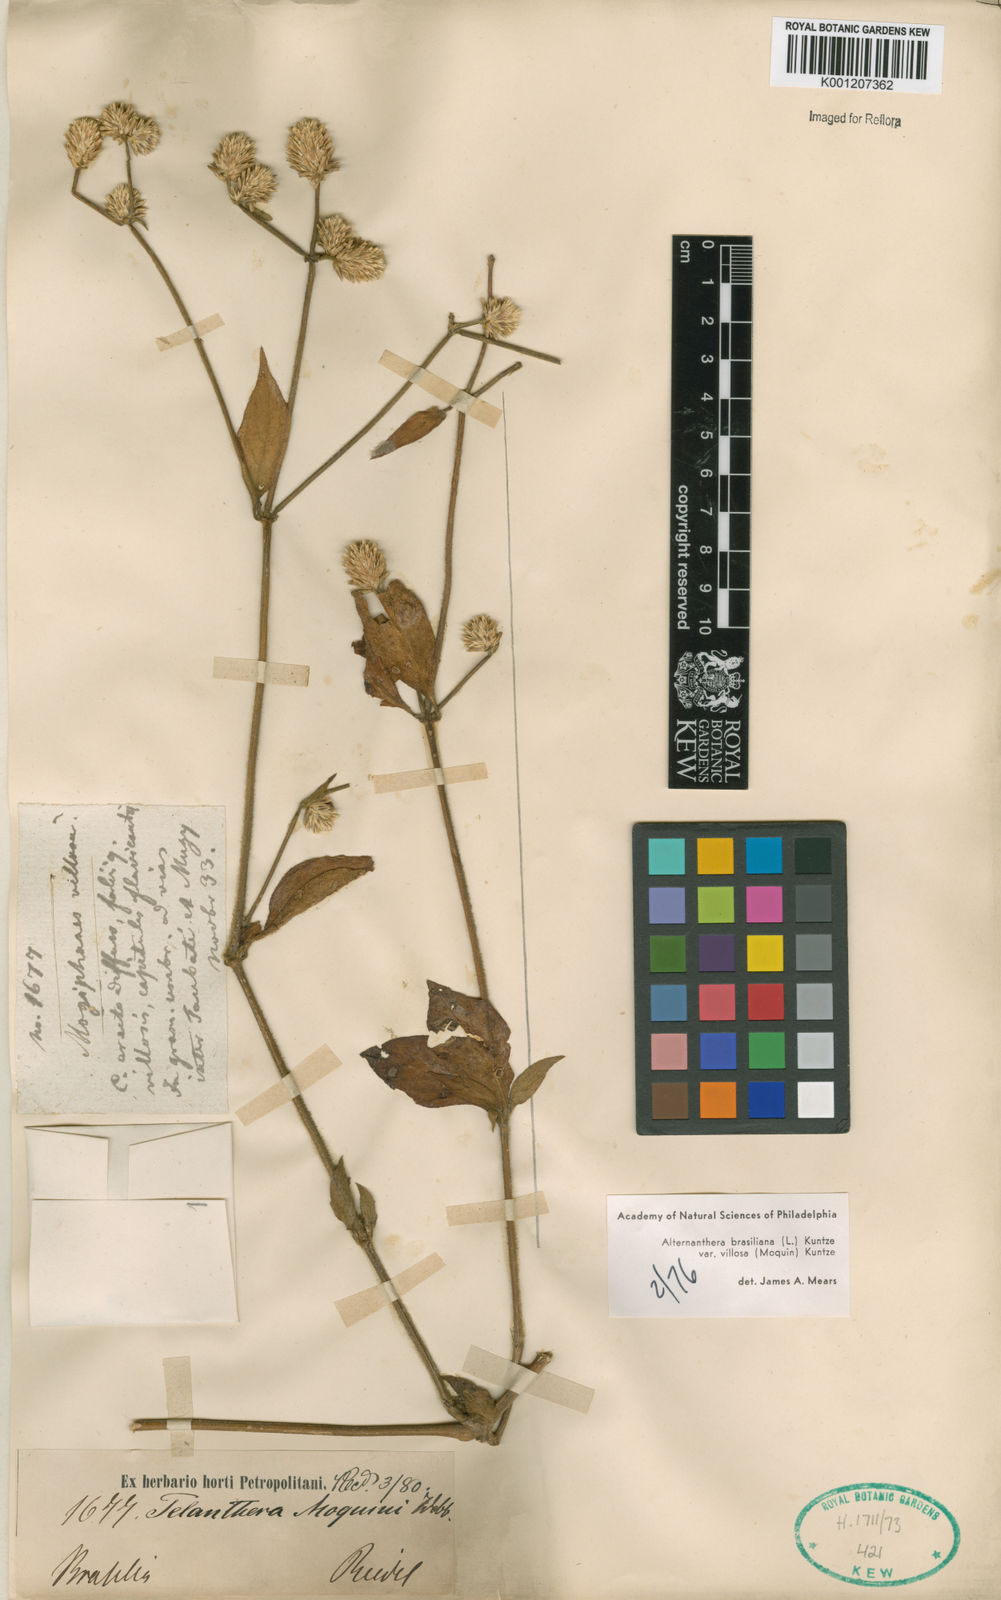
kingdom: Plantae
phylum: Tracheophyta
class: Magnoliopsida
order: Caryophyllales
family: Amaranthaceae
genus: Alternanthera
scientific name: Alternanthera brasiliana
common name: Brazilian joyweed
